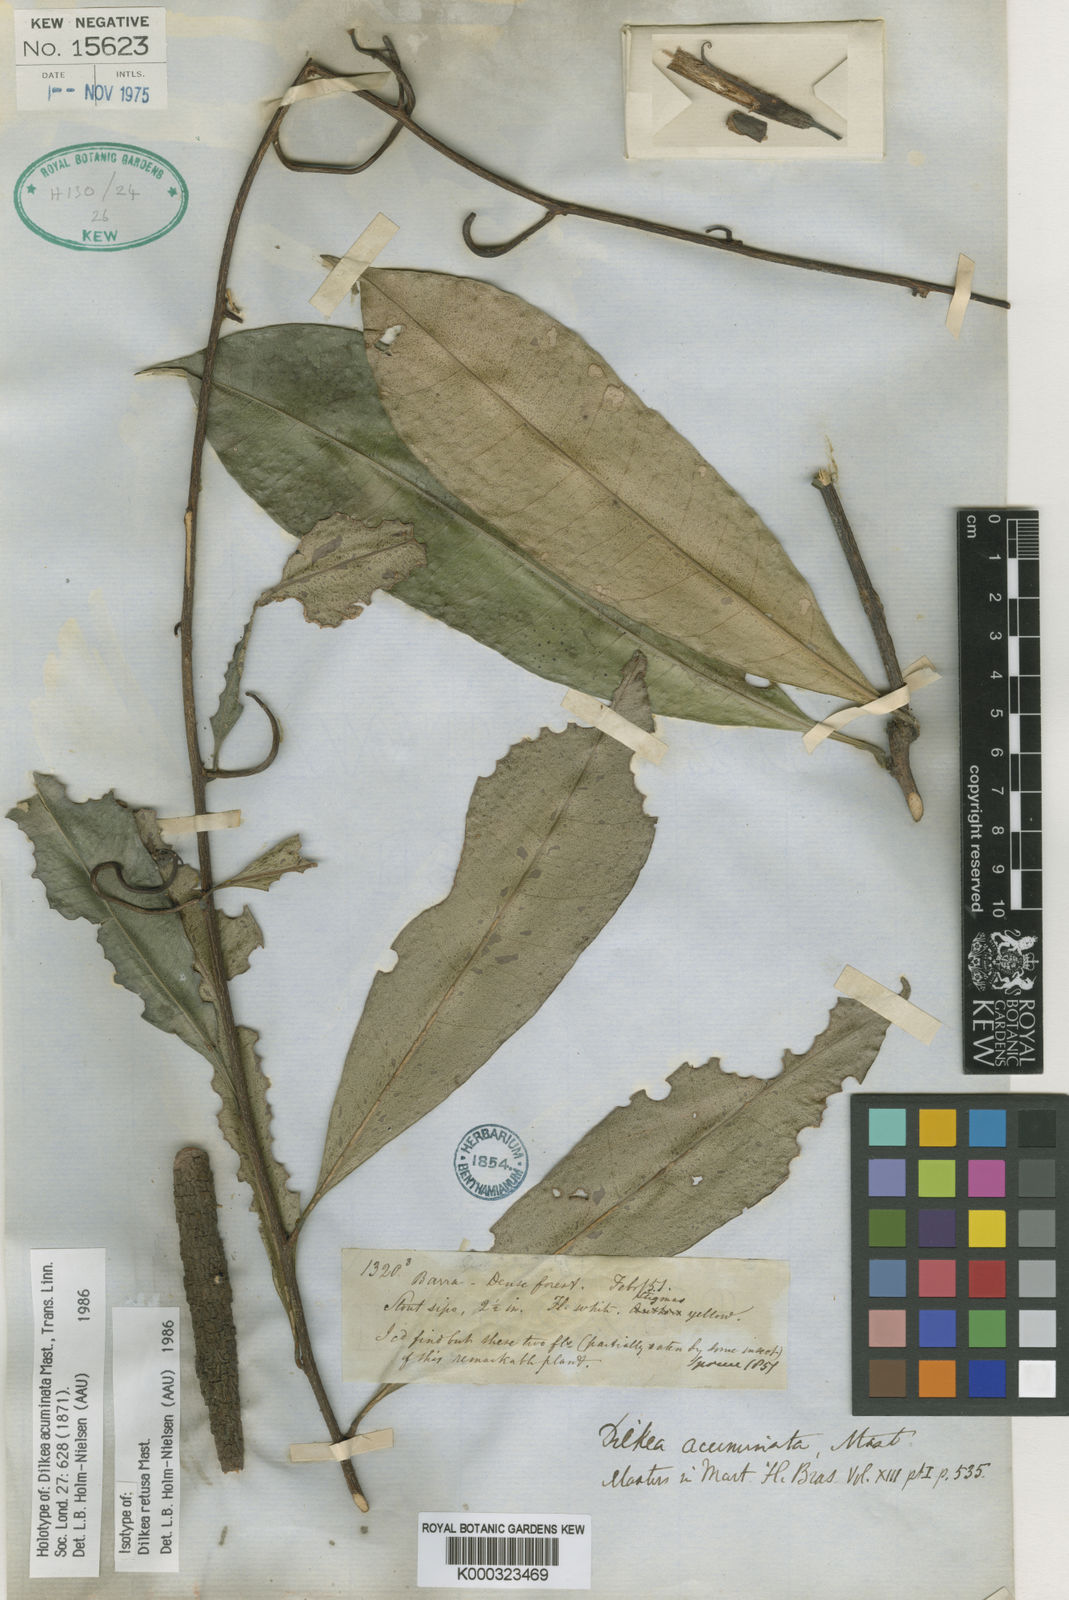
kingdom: Plantae
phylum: Tracheophyta
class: Magnoliopsida
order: Malpighiales
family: Passifloraceae
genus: Dilkea
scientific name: Dilkea acuminata
